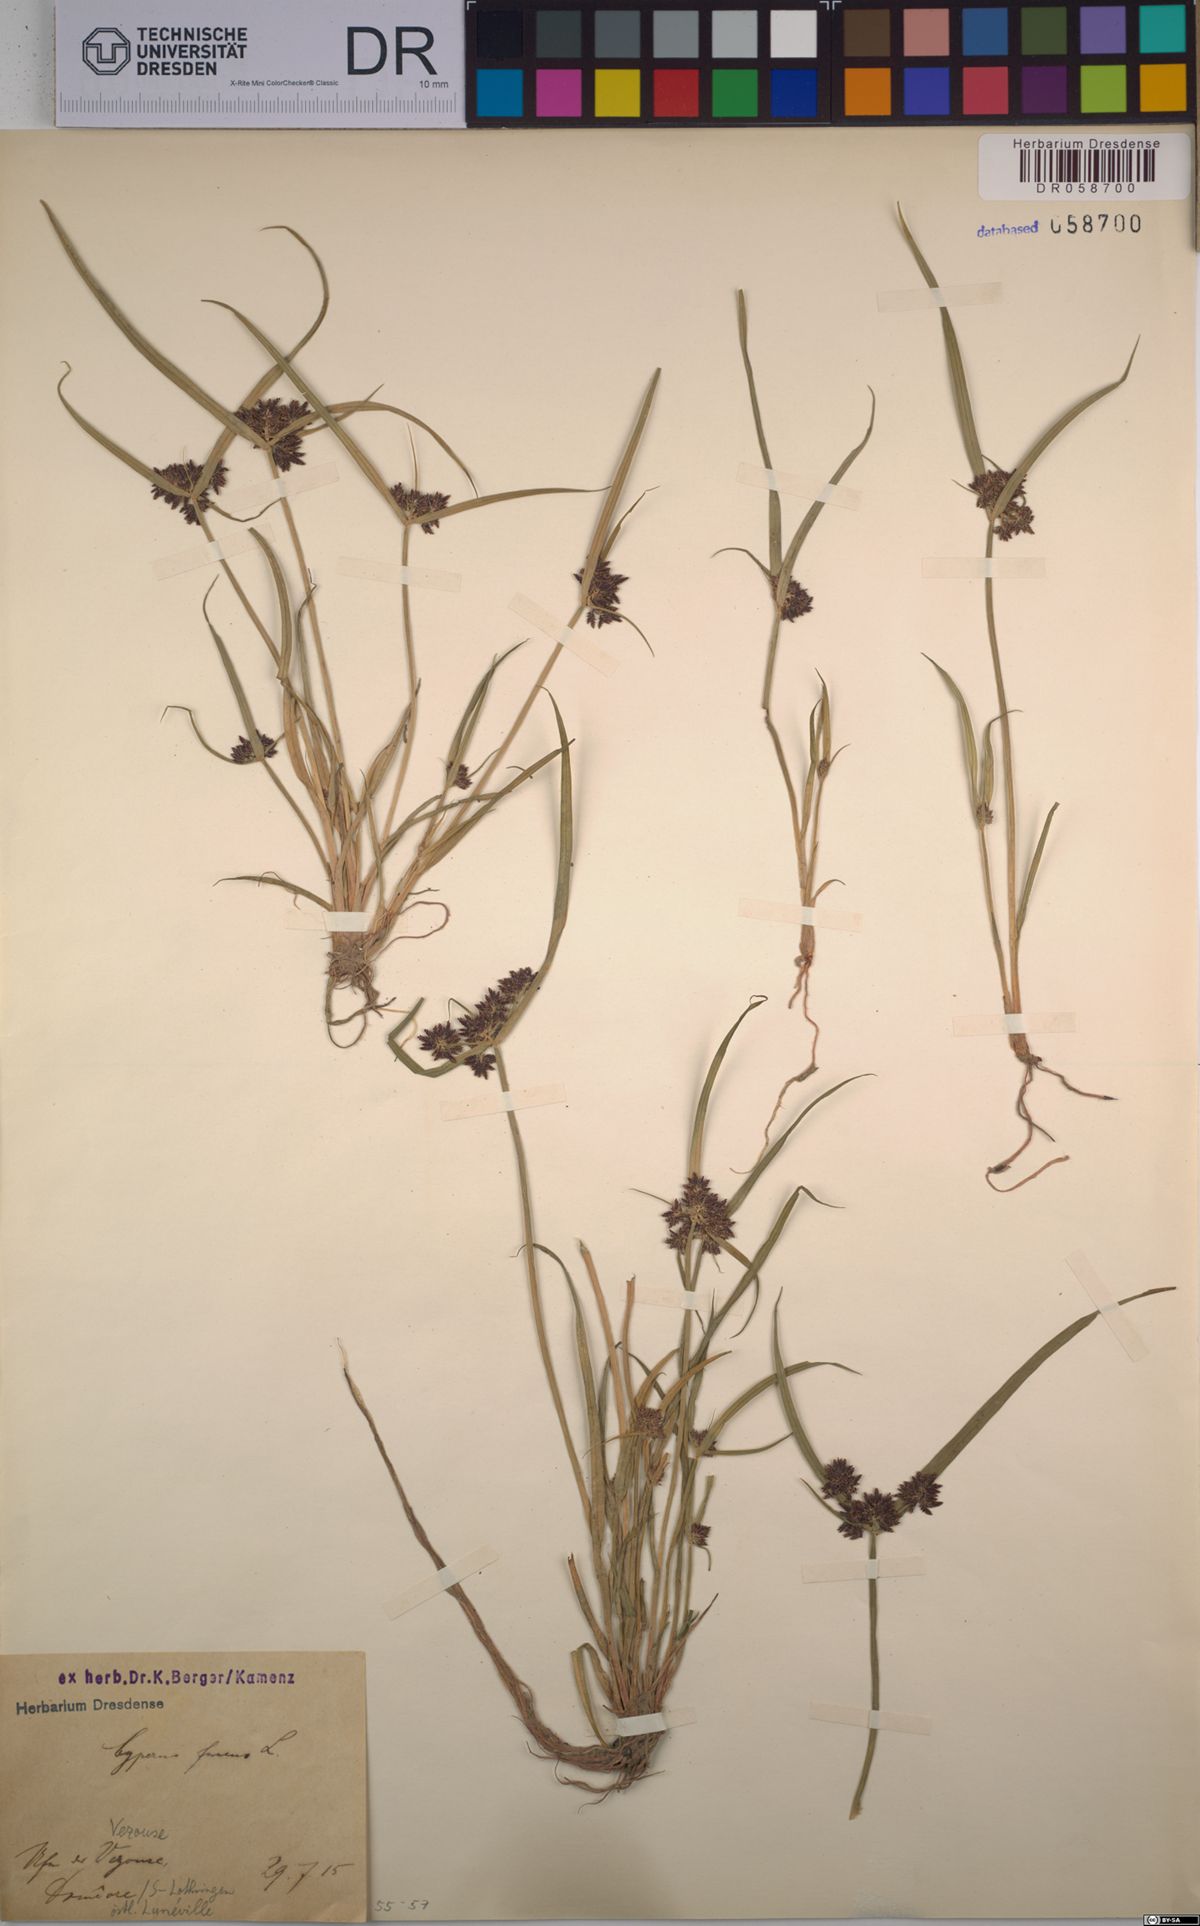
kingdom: Plantae
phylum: Tracheophyta
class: Liliopsida
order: Poales
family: Cyperaceae
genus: Cyperus
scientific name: Cyperus fuscus
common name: Brown galingale
